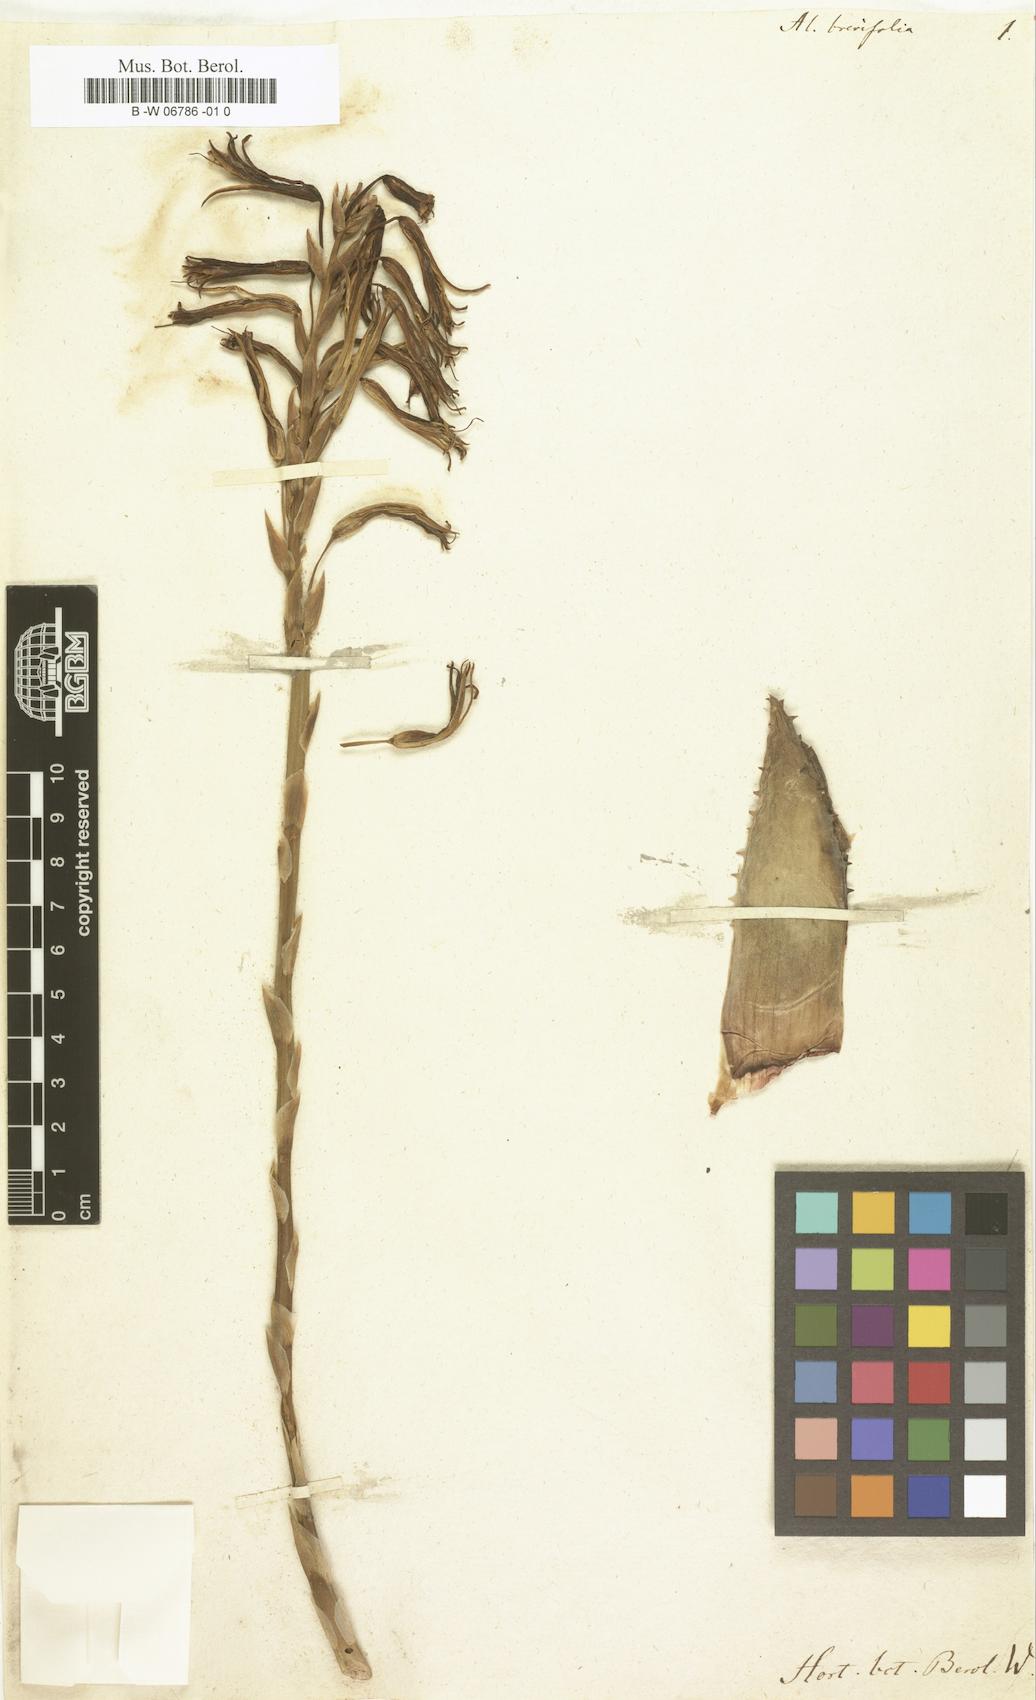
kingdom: Plantae
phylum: Tracheophyta
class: Liliopsida
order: Asparagales
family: Asphodelaceae
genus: Aloe
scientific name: Aloe brevifolia
